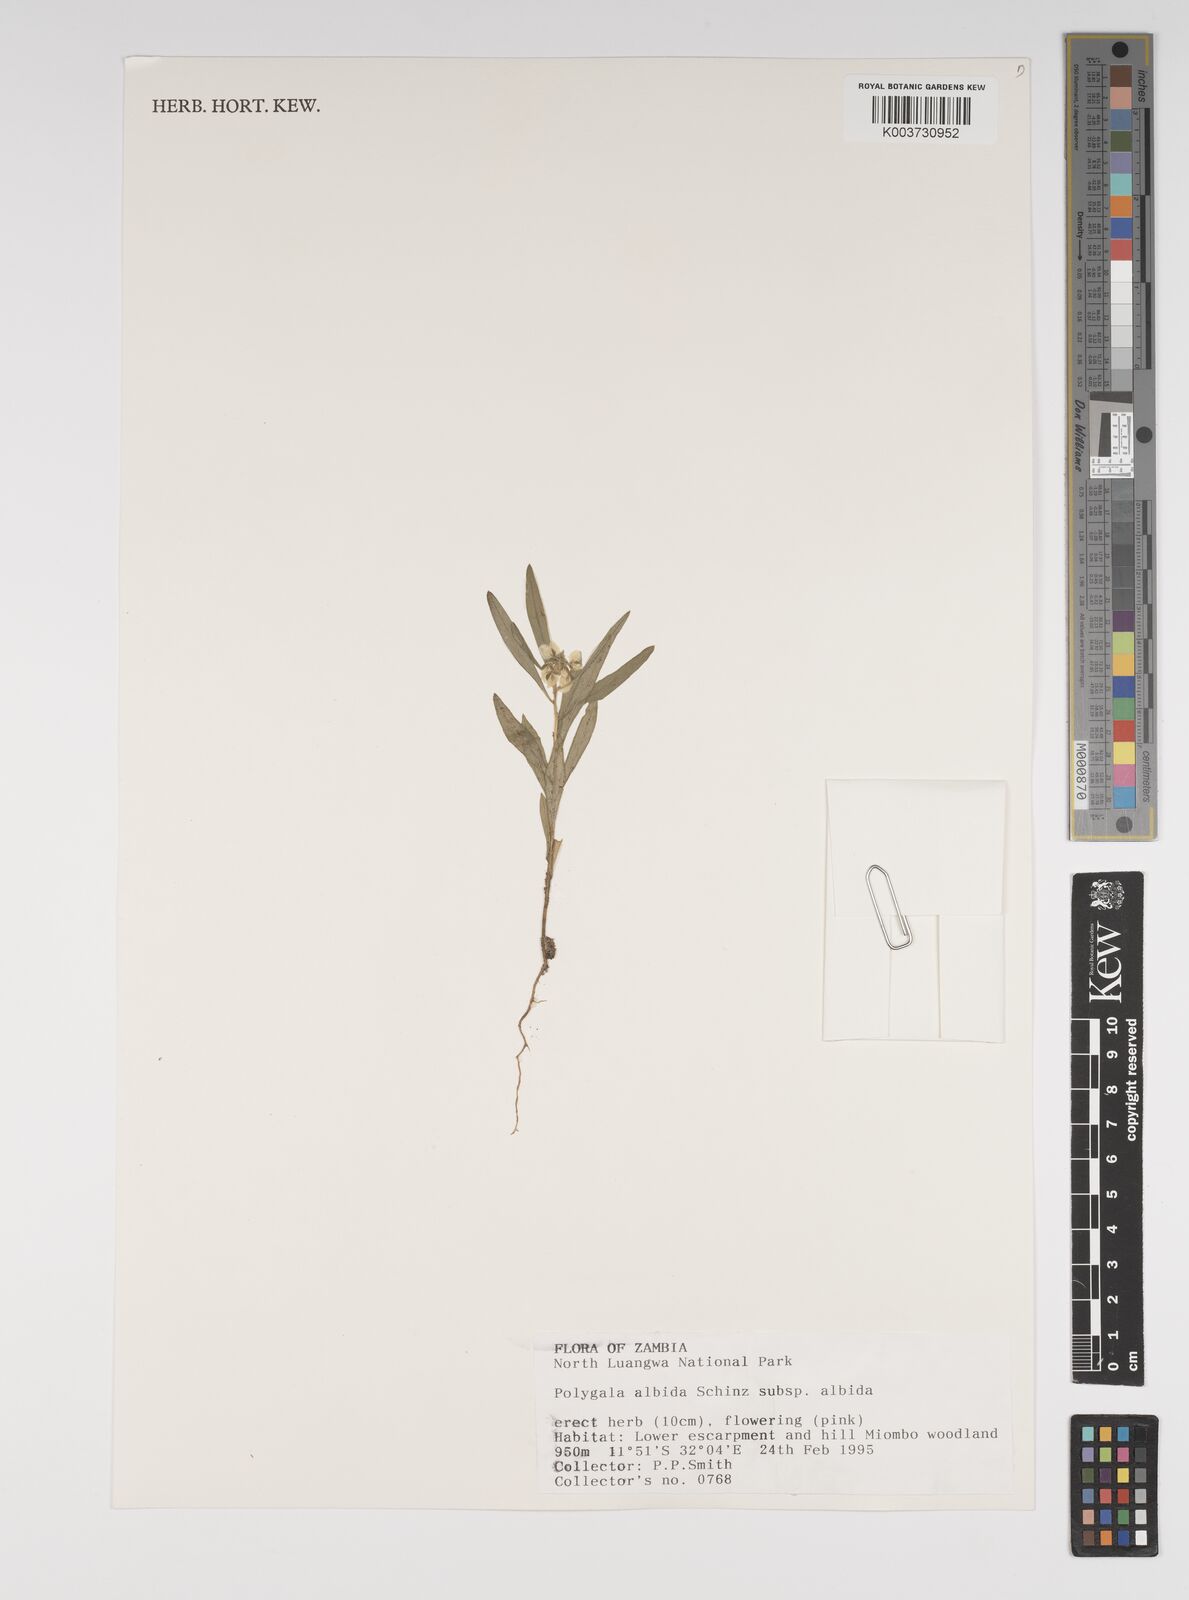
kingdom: Plantae
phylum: Tracheophyta
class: Magnoliopsida
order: Fabales
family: Polygalaceae
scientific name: Polygalaceae
